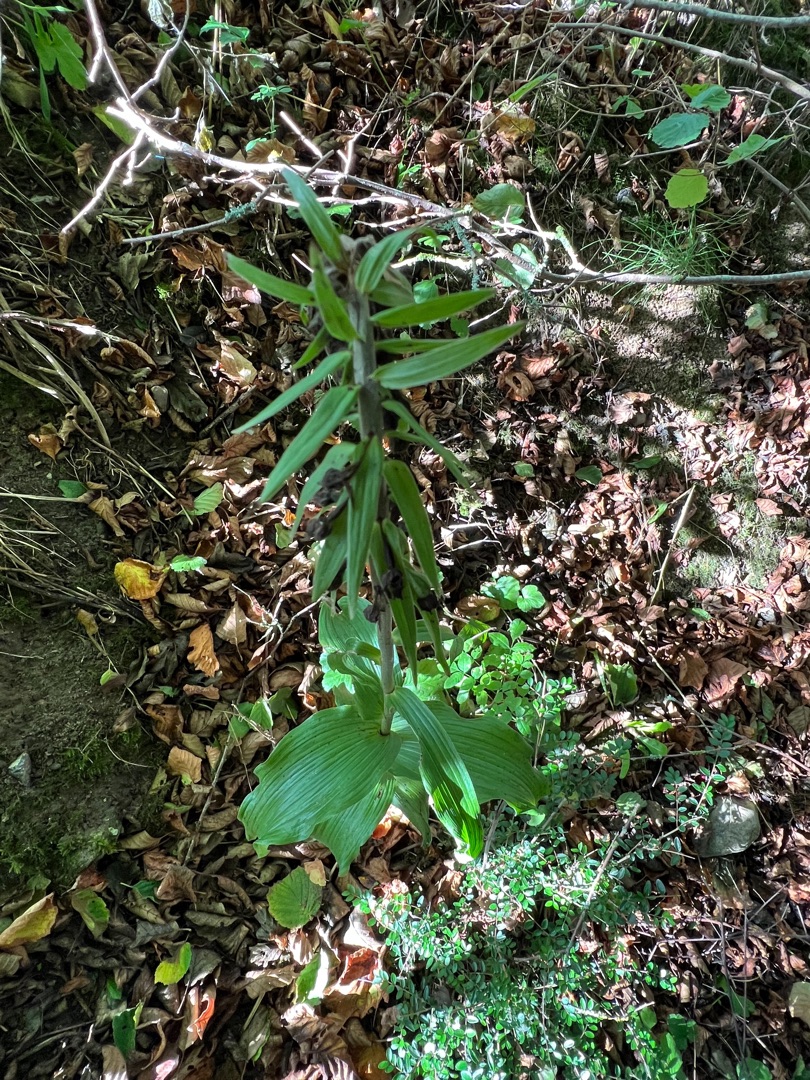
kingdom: Plantae
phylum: Tracheophyta
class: Liliopsida
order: Asparagales
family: Orchidaceae
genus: Epipactis
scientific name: Epipactis helleborine
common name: Skov-hullæbe
